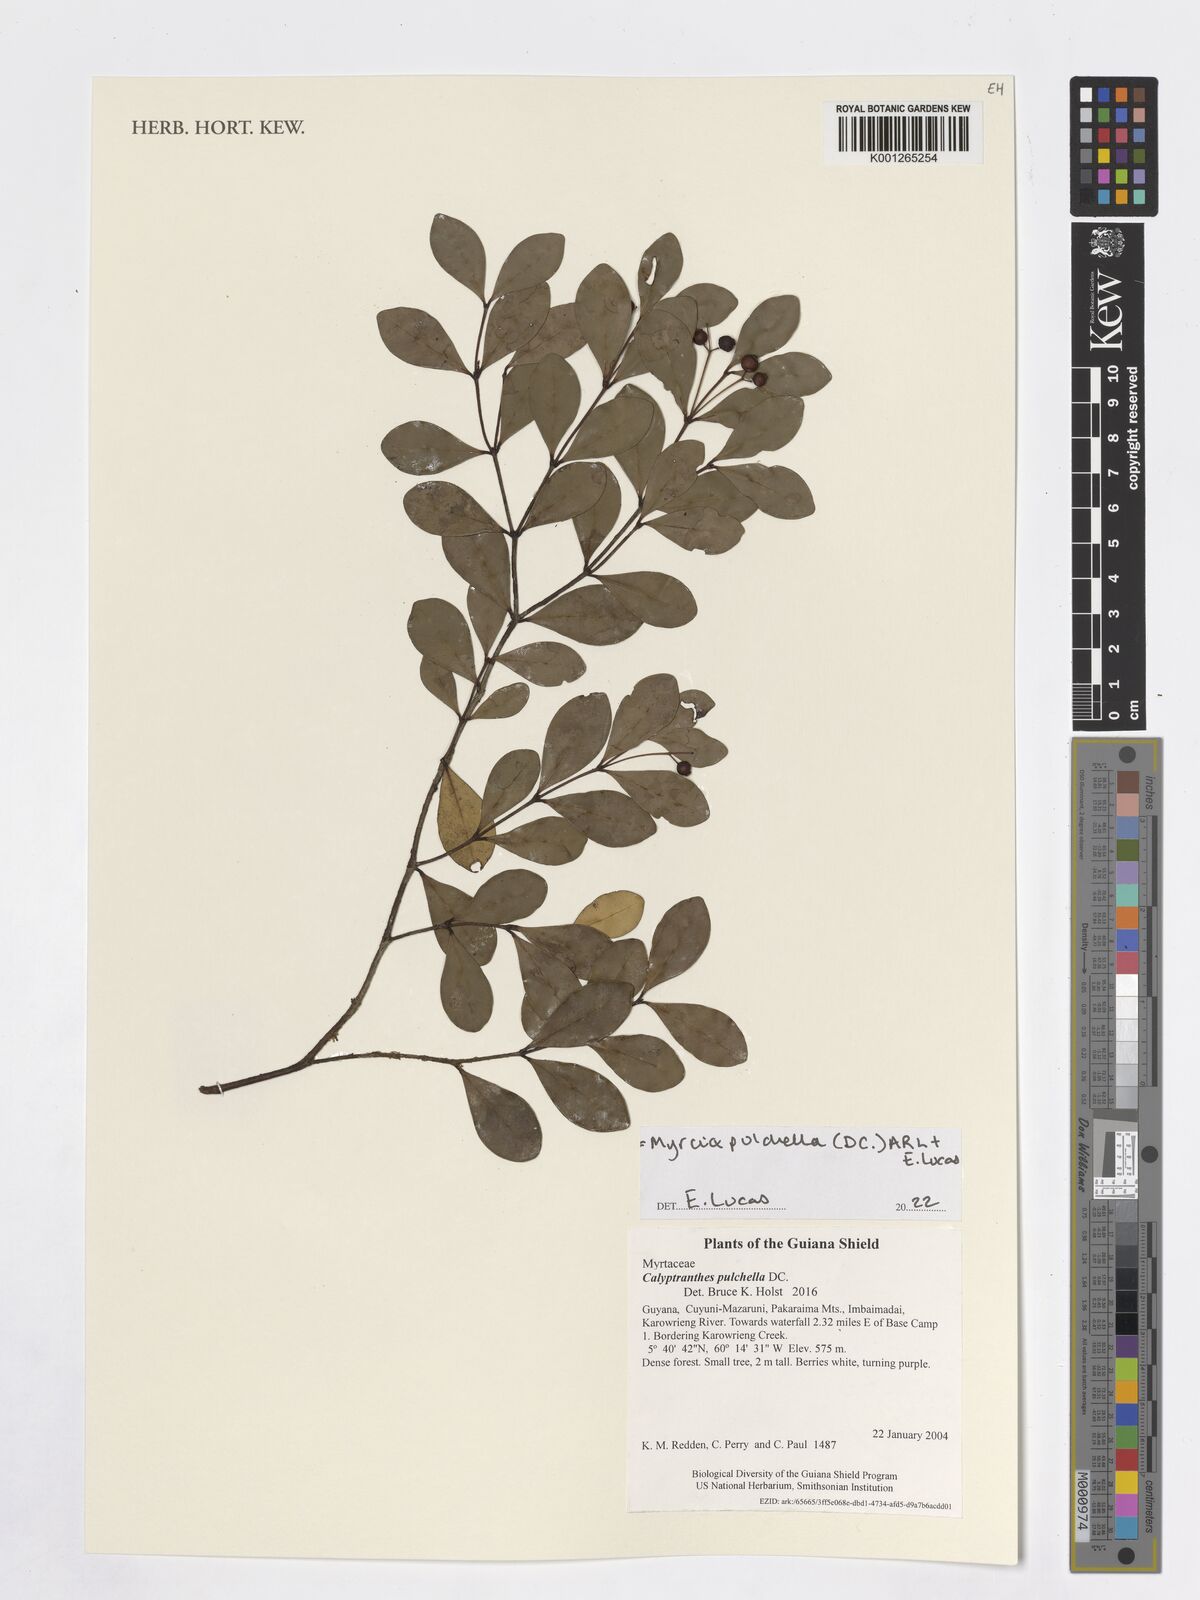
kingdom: Plantae
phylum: Tracheophyta
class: Magnoliopsida
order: Myrtales
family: Myrtaceae
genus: Myrcia
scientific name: Myrcia pulchella
